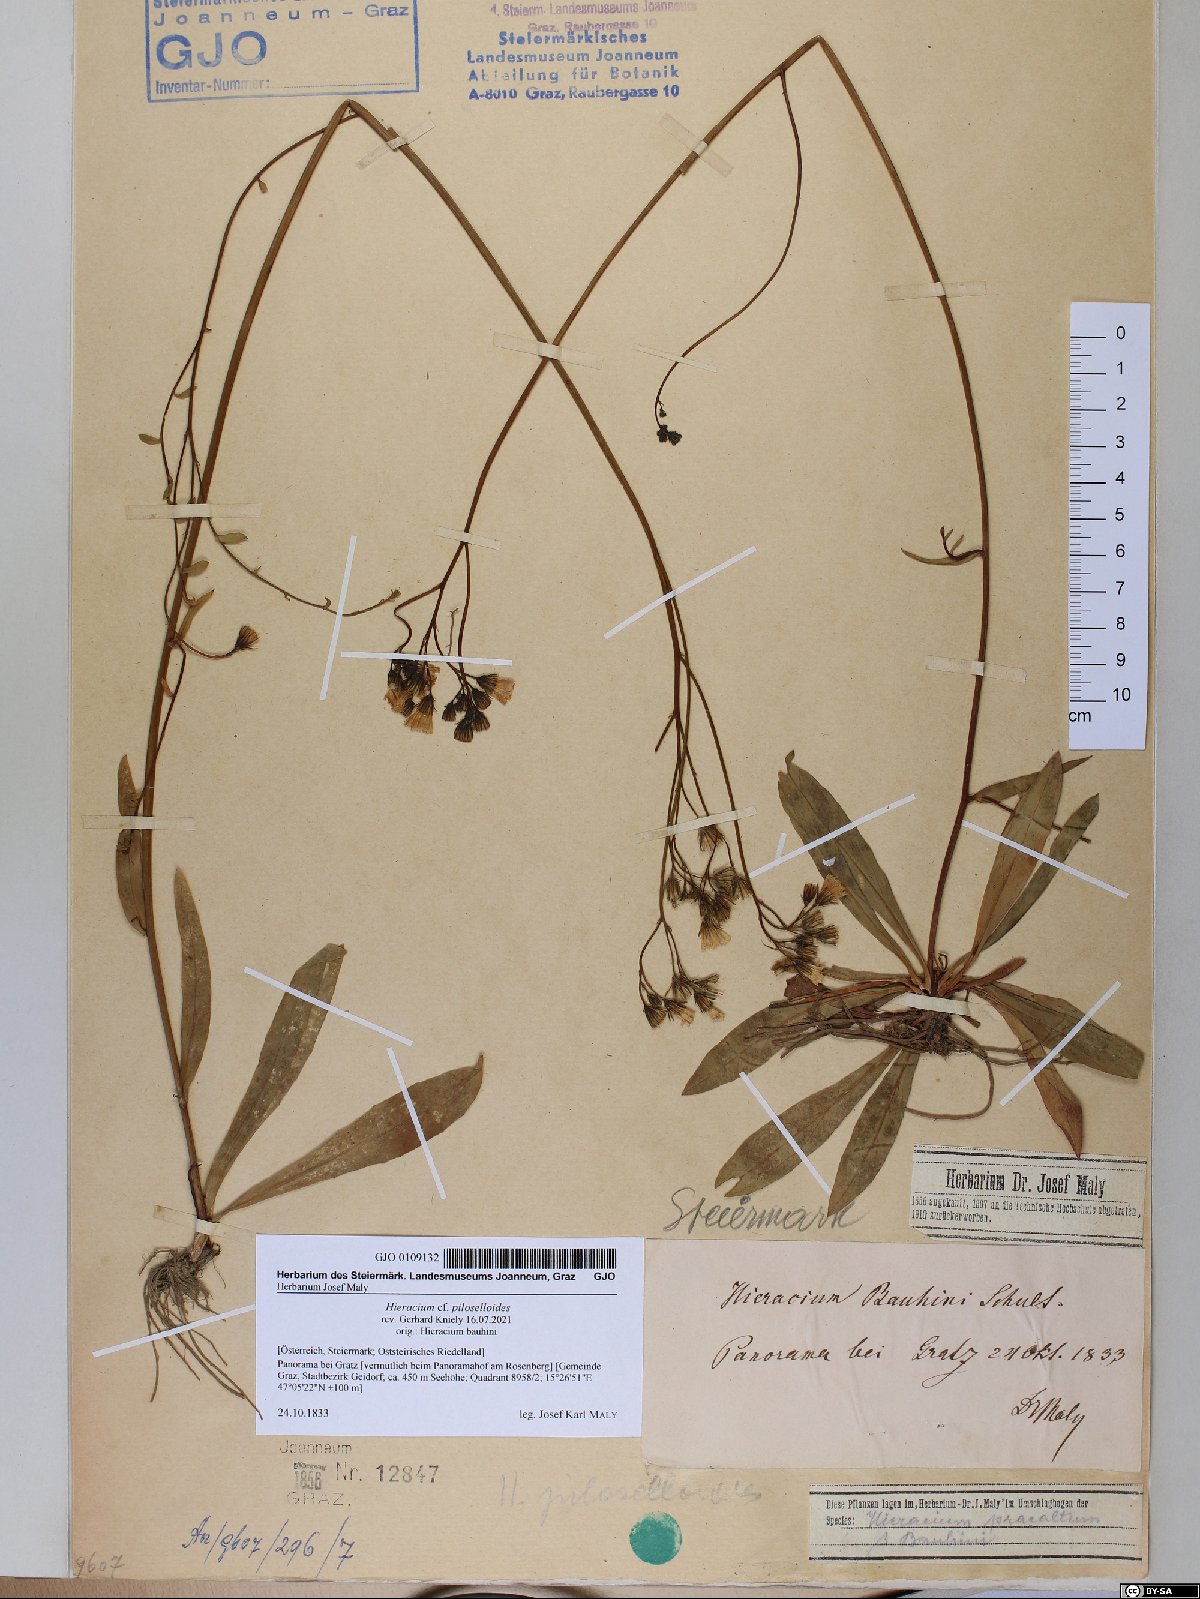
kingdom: Plantae
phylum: Tracheophyta
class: Magnoliopsida
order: Asterales
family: Asteraceae
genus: Pilosella
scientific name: Pilosella piloselloides
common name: Glaucous king-devil
